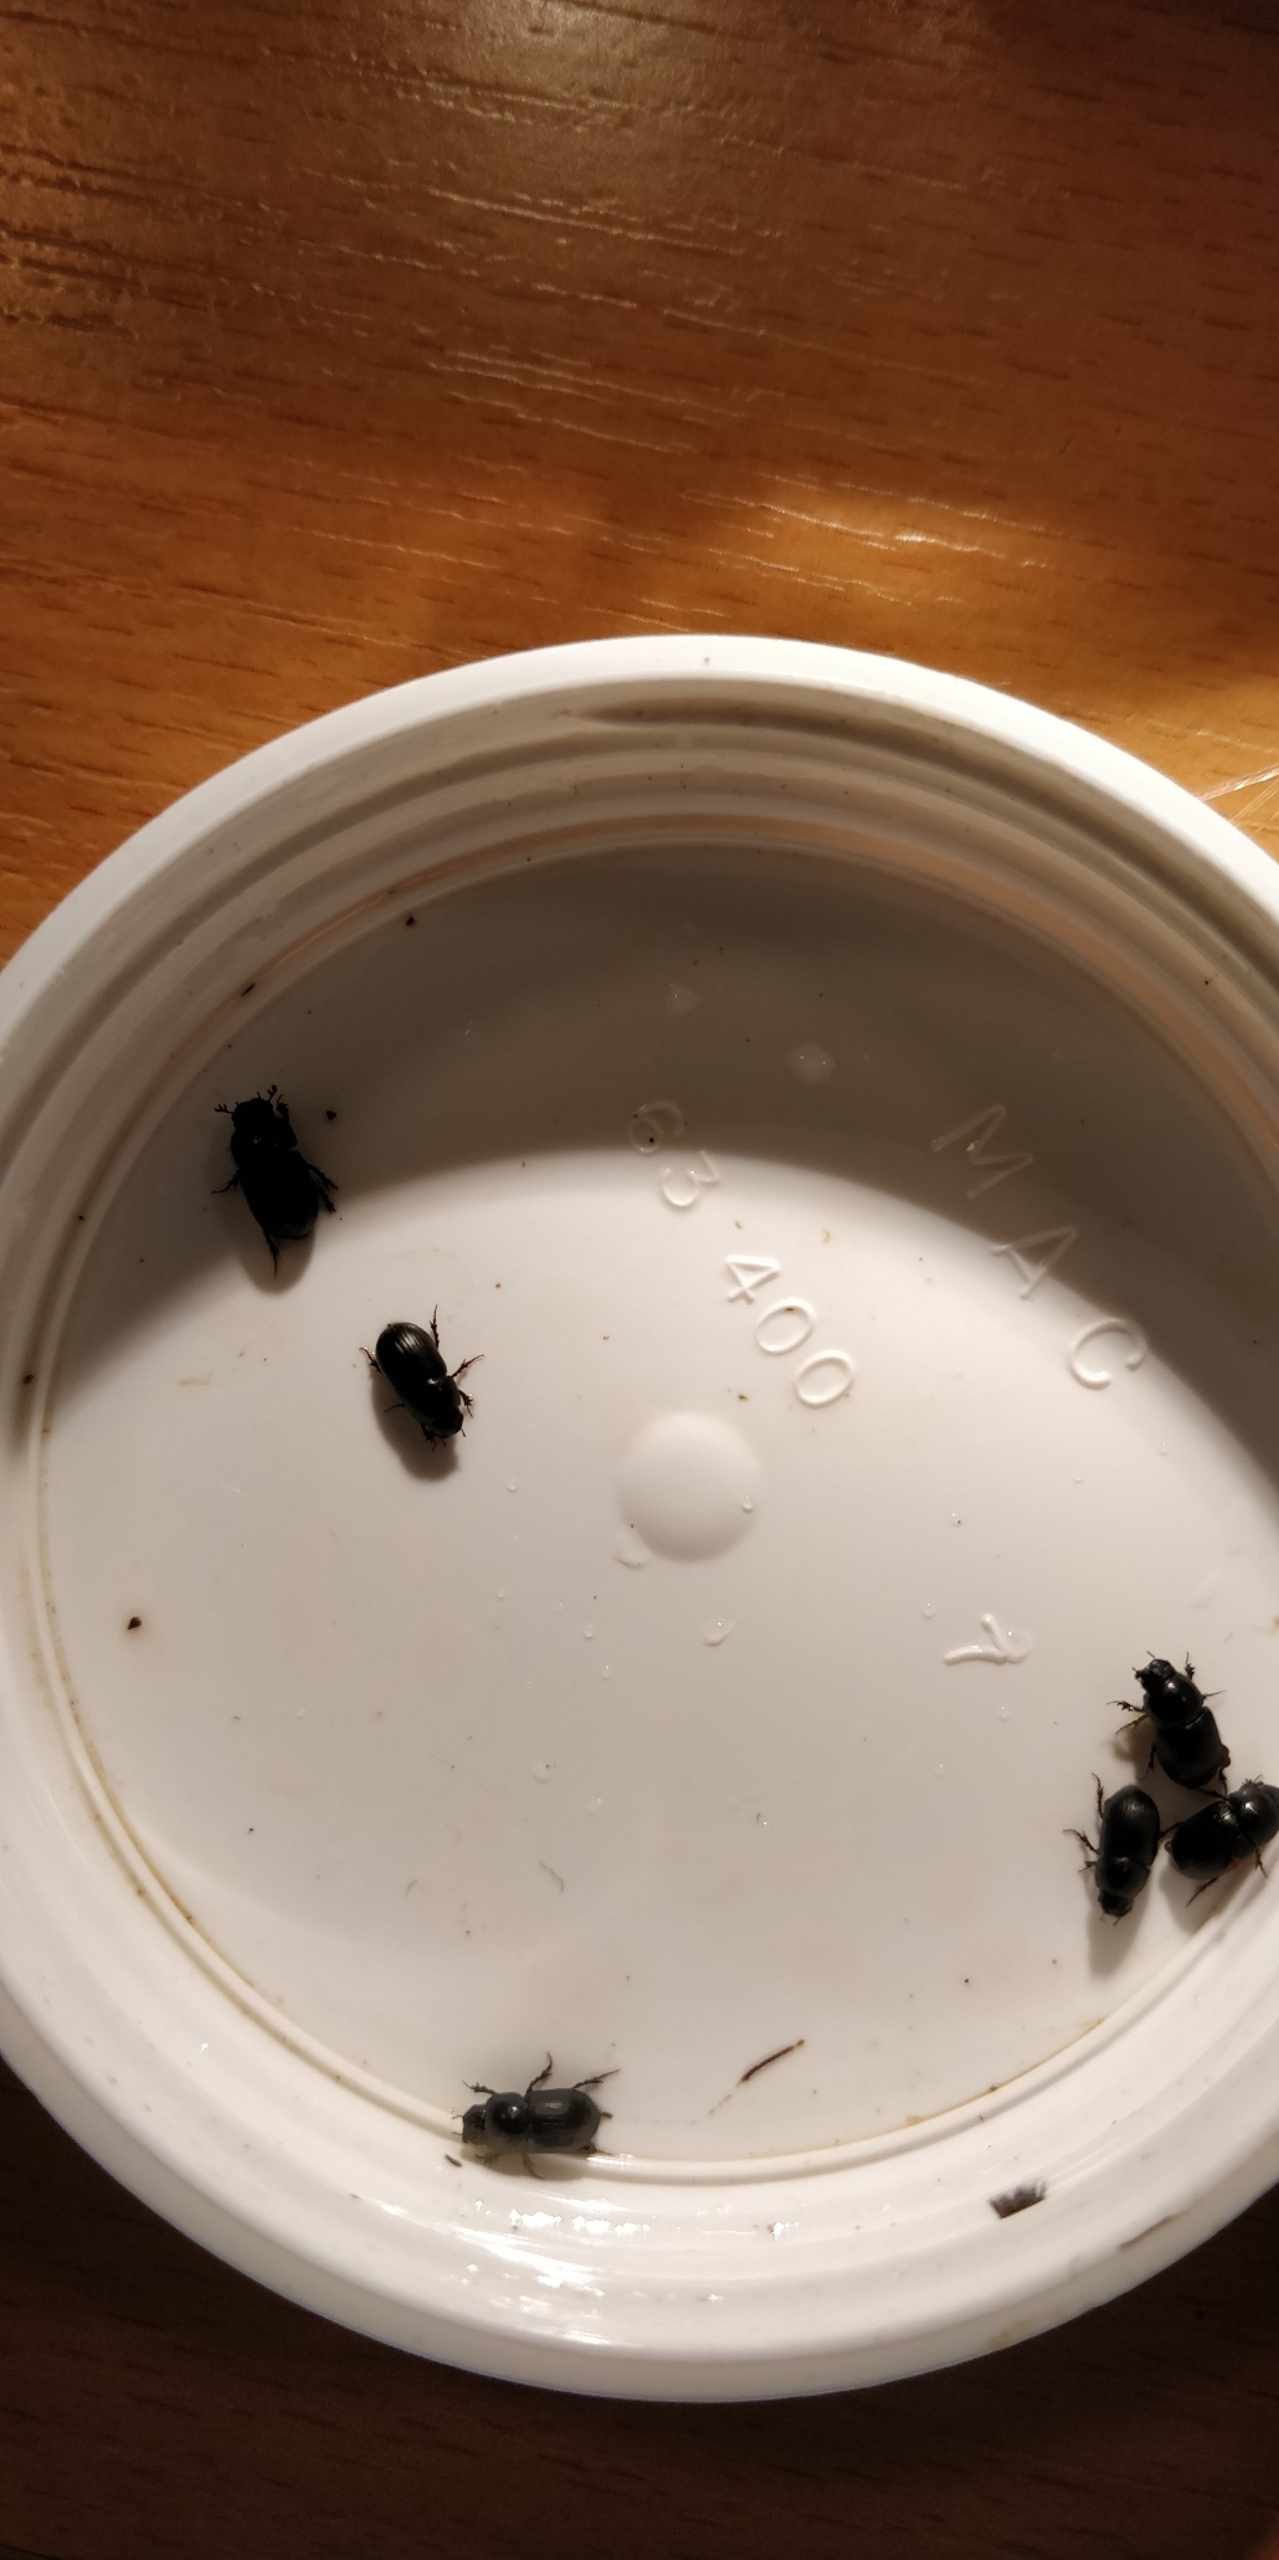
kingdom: Animalia
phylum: Arthropoda
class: Insecta
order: Coleoptera
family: Scarabaeidae
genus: Acrossus
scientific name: Acrossus depressus
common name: Flad møgbille
